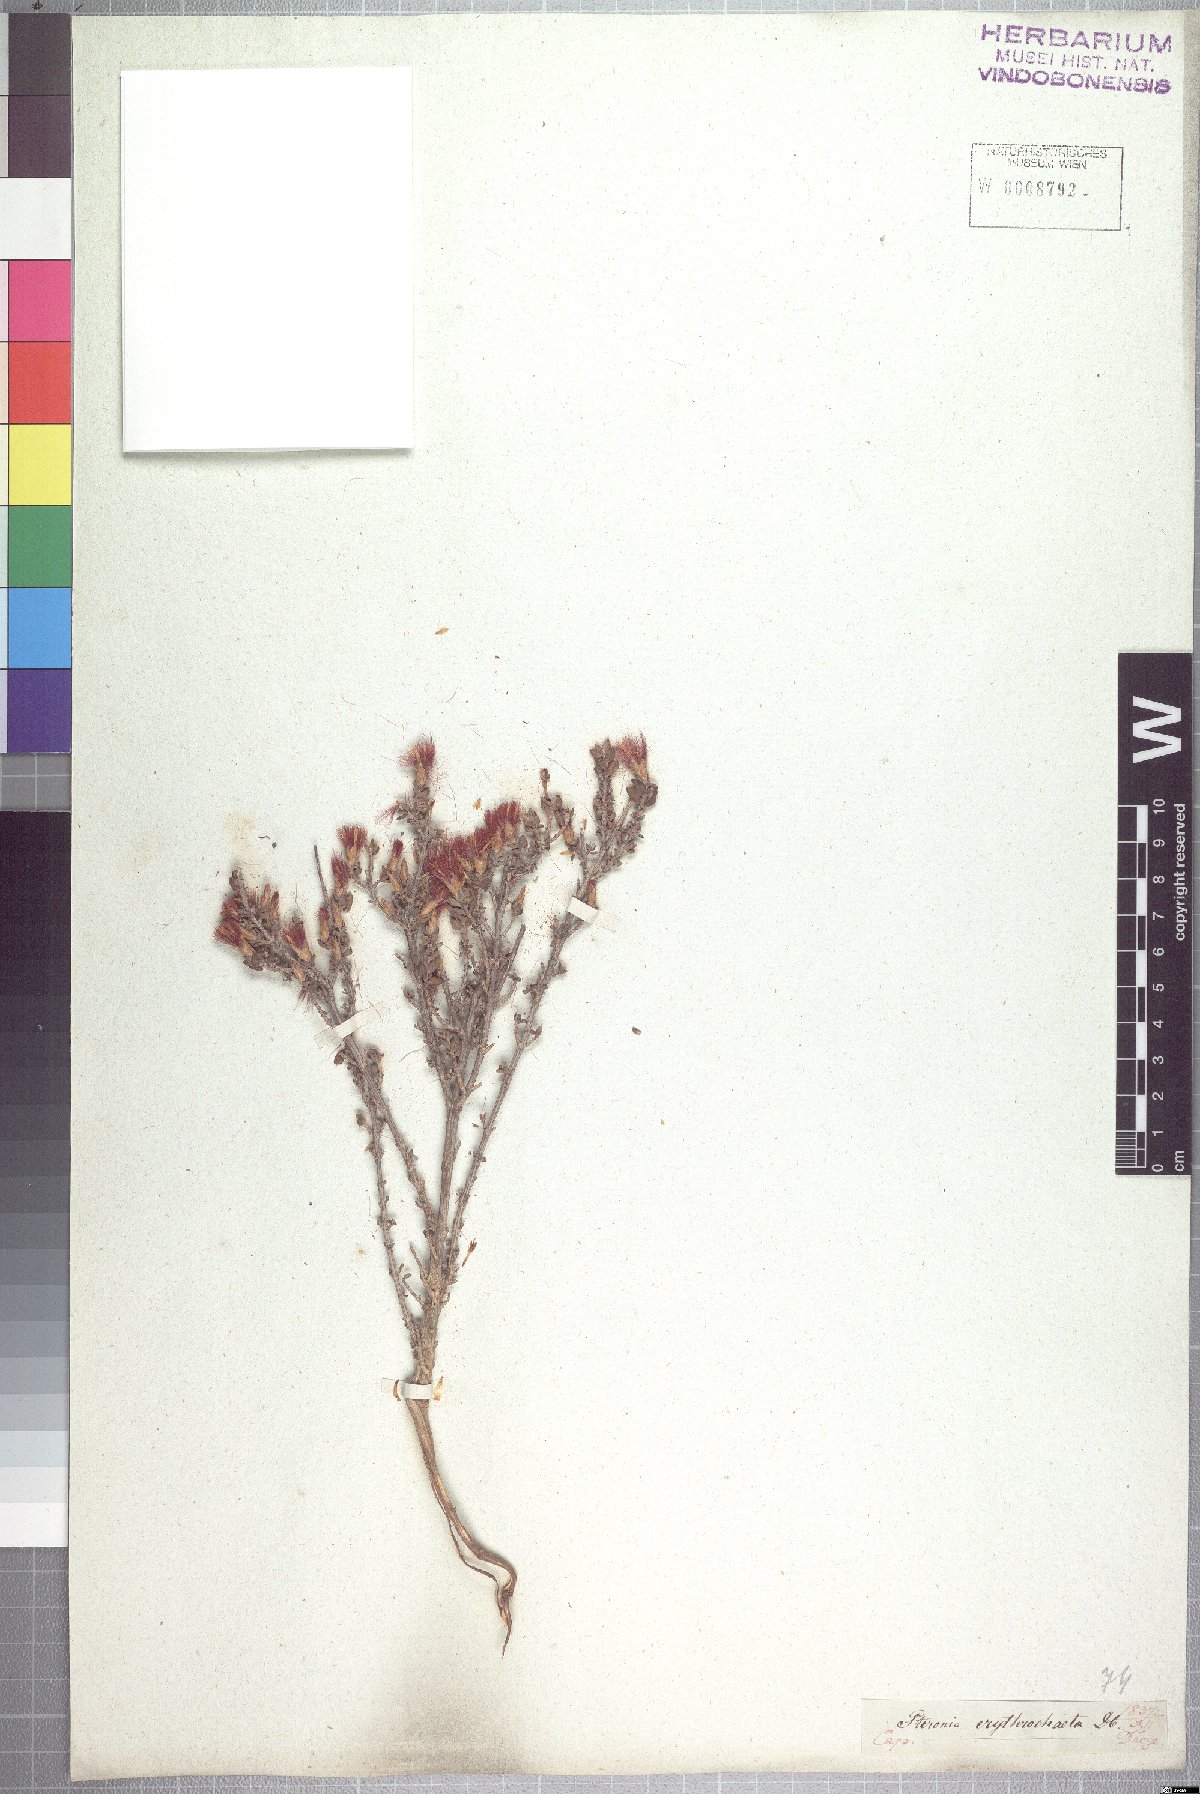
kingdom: Plantae
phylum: Tracheophyta
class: Magnoliopsida
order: Asterales
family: Asteraceae
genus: Pteronia
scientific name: Pteronia erythrochaeta
